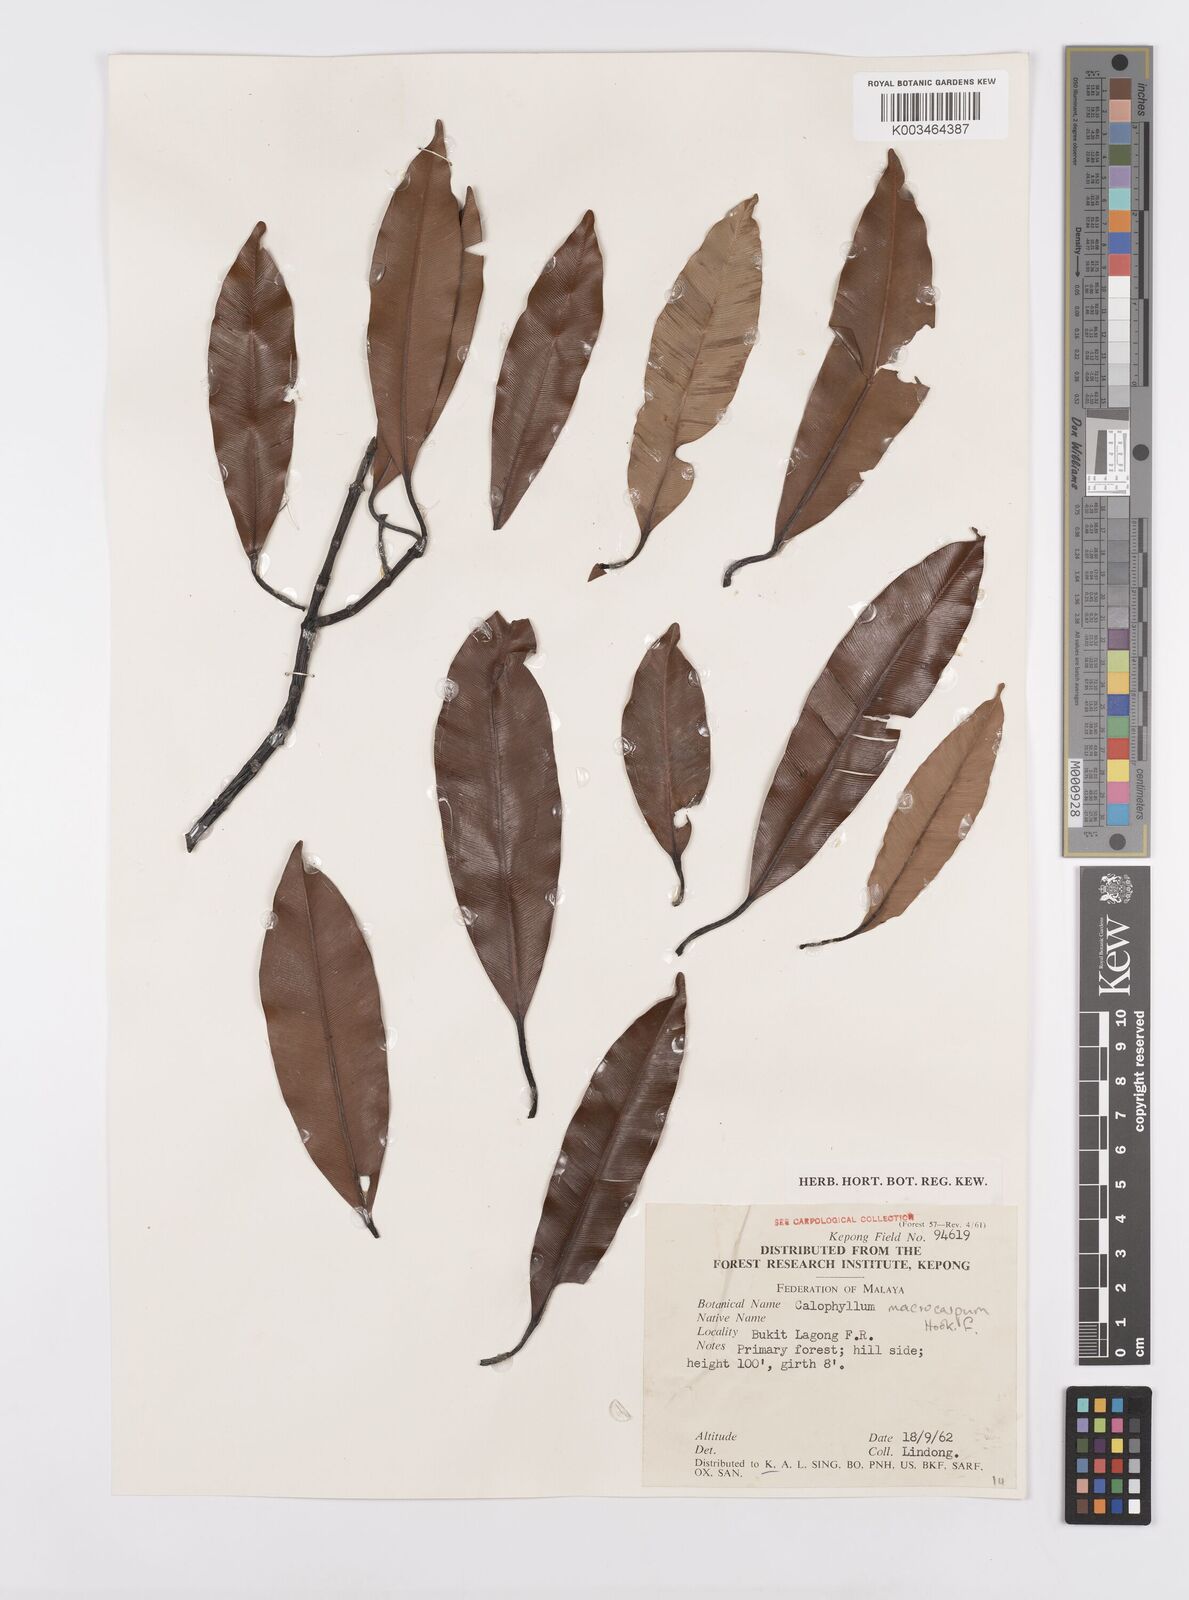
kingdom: Plantae
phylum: Tracheophyta
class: Magnoliopsida
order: Malpighiales
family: Calophyllaceae
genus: Calophyllum
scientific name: Calophyllum macrocarpum
